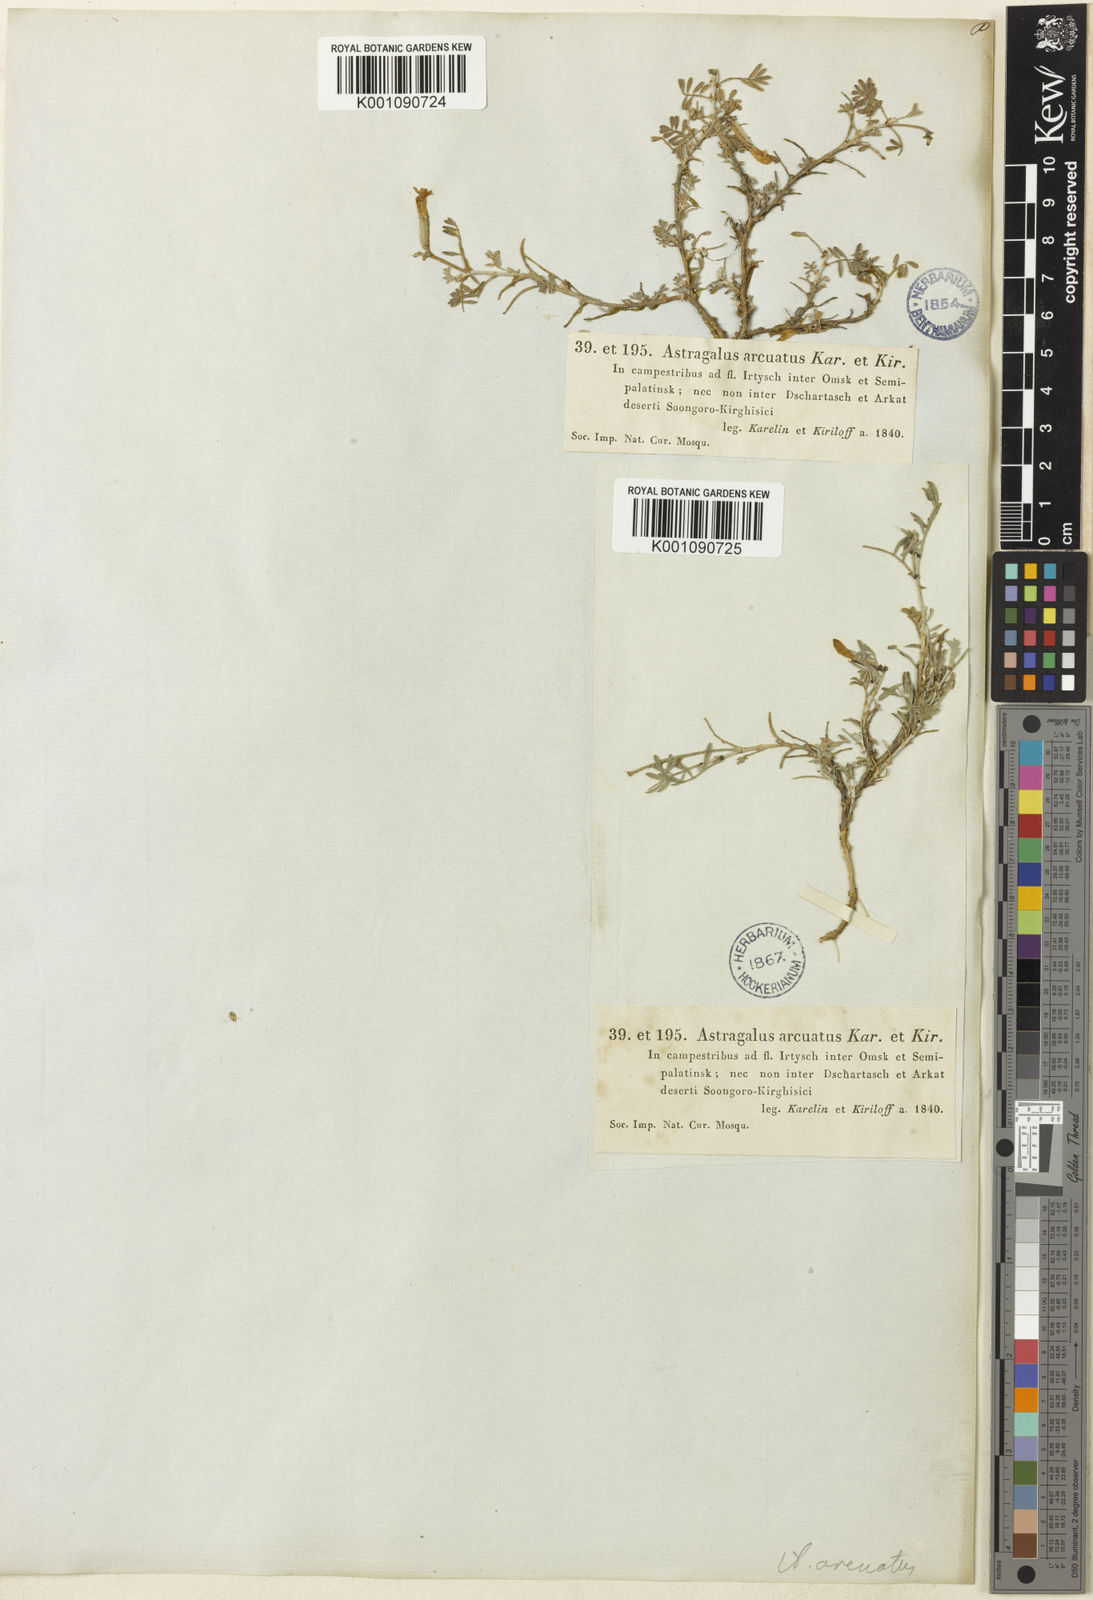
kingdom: Plantae
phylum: Tracheophyta
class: Magnoliopsida
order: Fabales
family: Fabaceae
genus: Astragalus
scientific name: Astragalus
